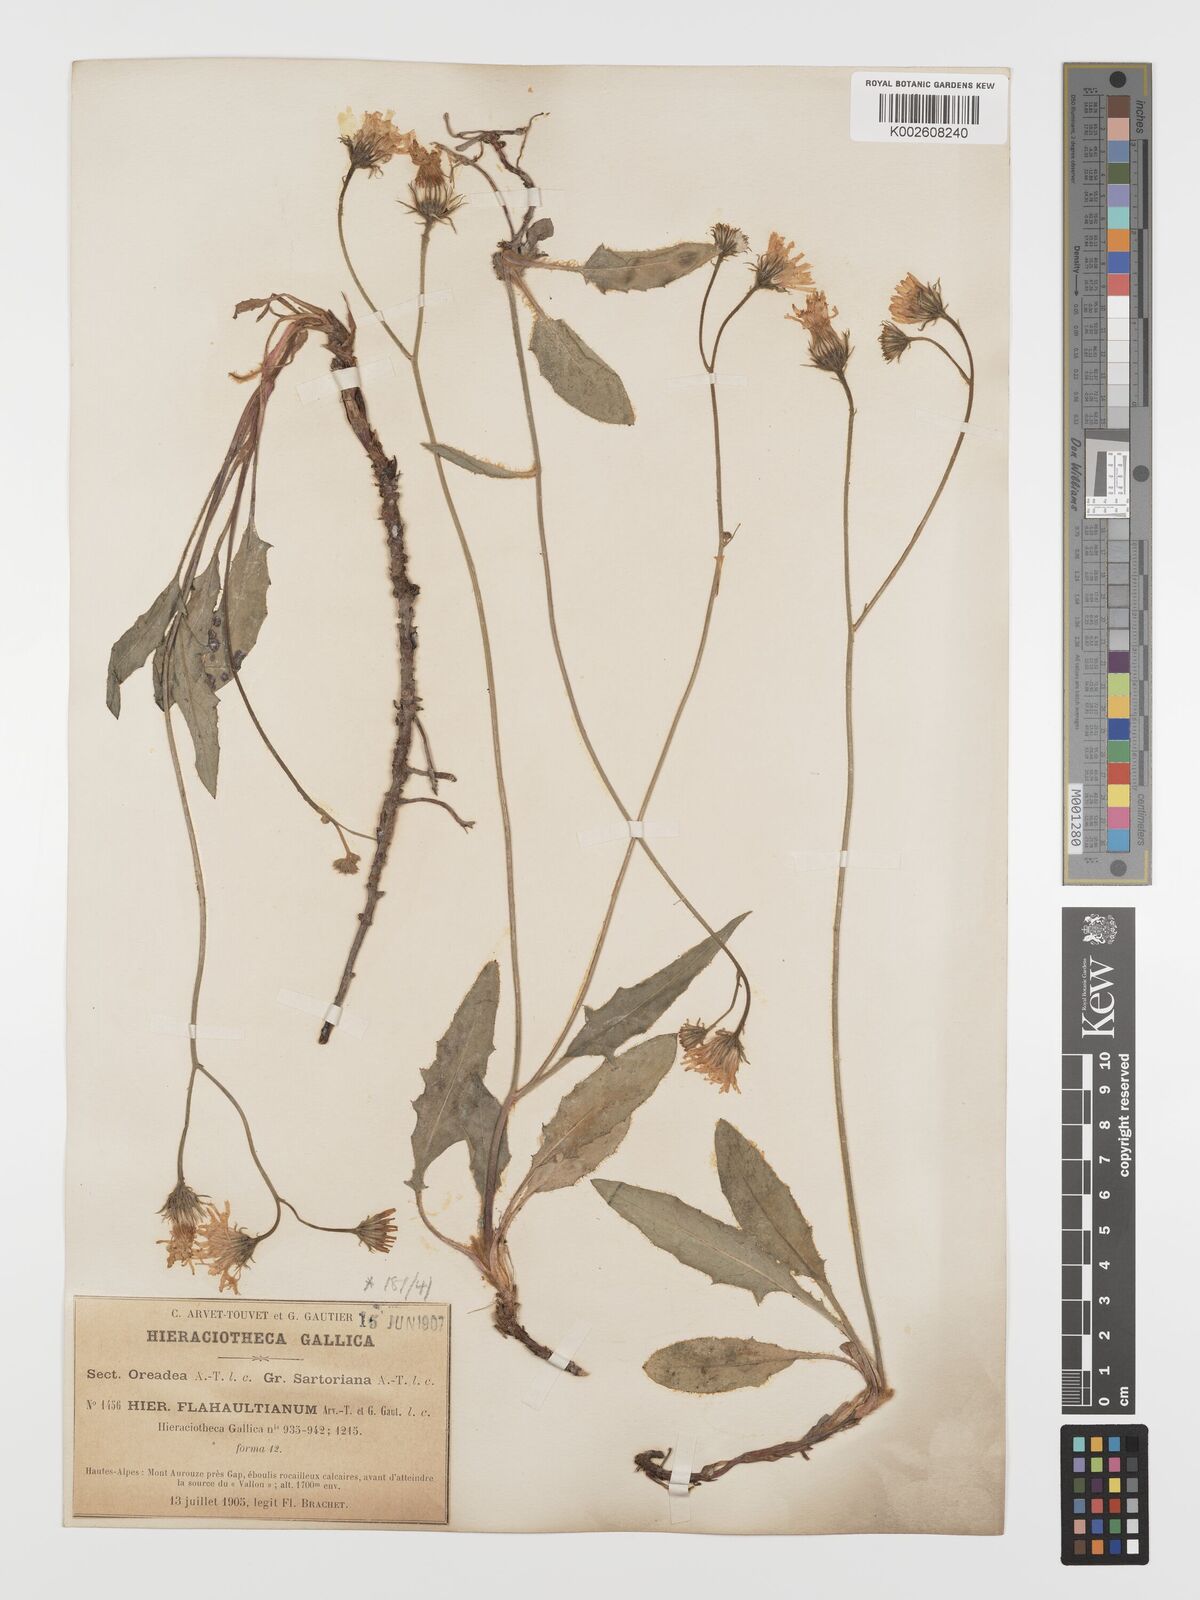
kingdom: Plantae
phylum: Tracheophyta
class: Magnoliopsida
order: Asterales
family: Asteraceae
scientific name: Asteraceae
